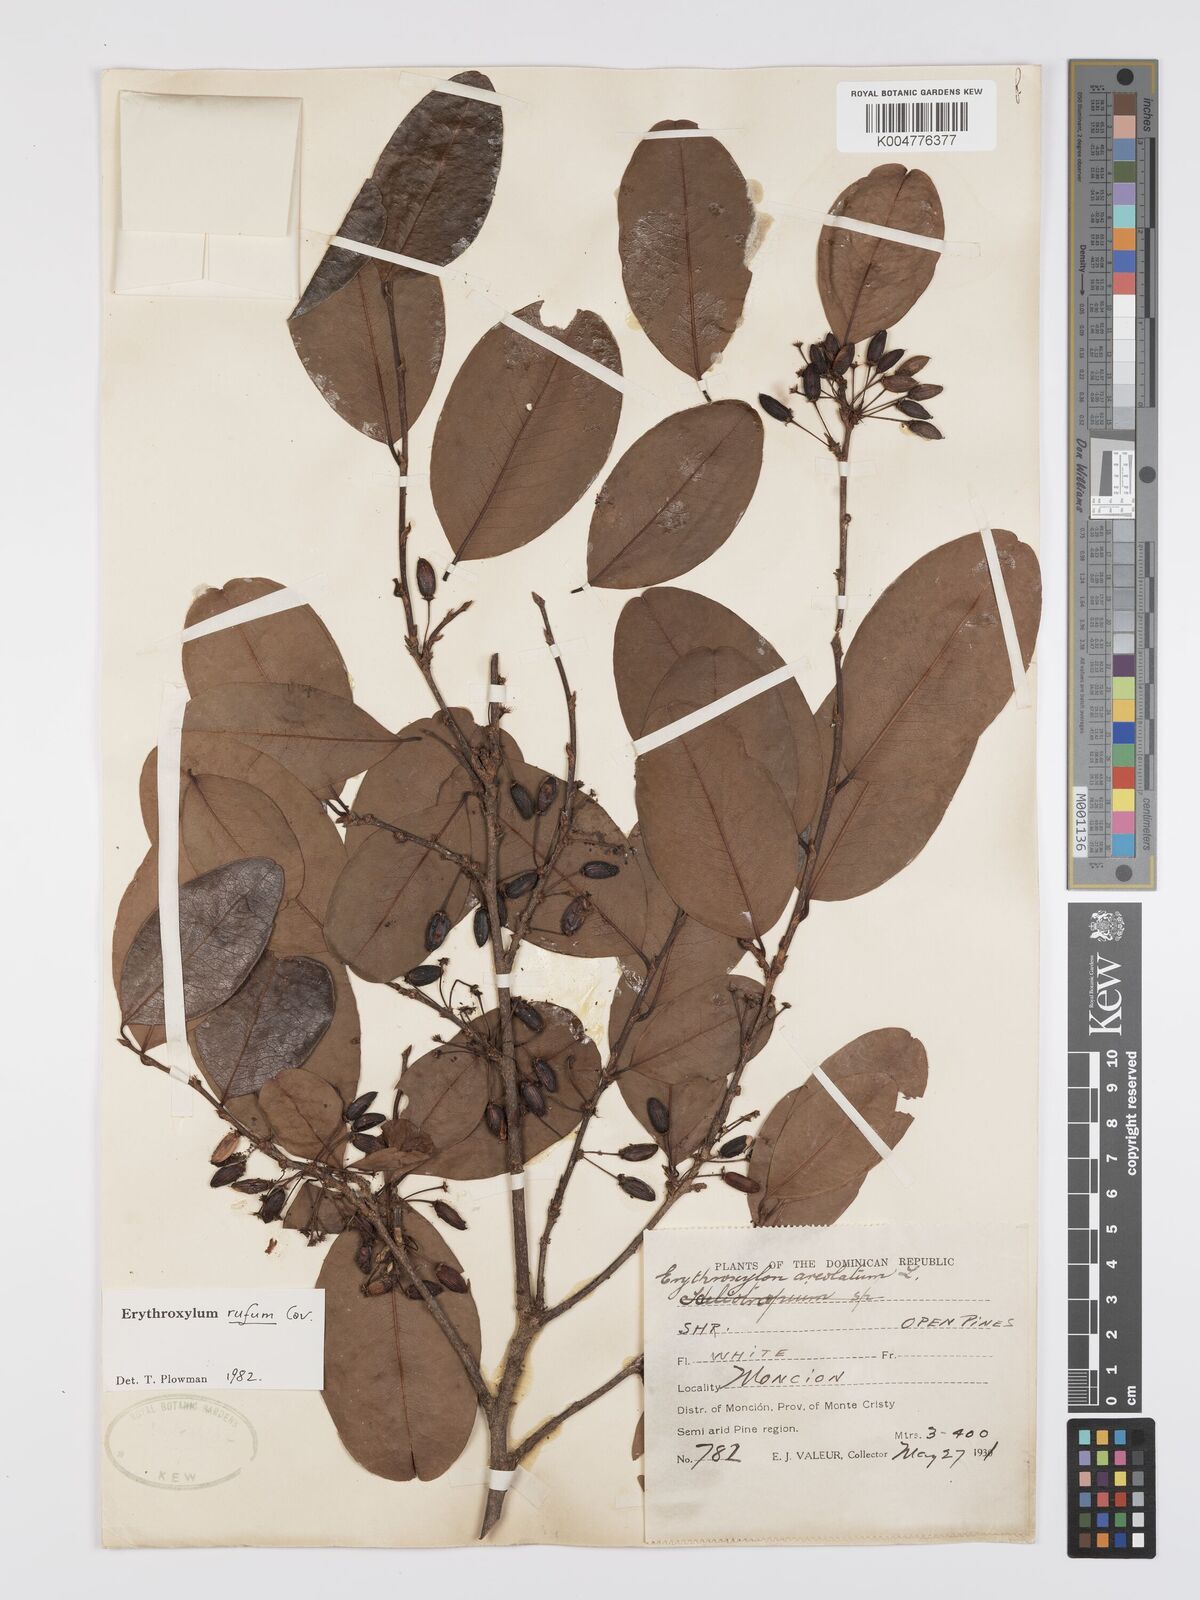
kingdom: Plantae
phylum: Tracheophyta
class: Magnoliopsida
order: Malpighiales
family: Erythroxylaceae
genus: Erythroxylum
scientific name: Erythroxylum rufum
